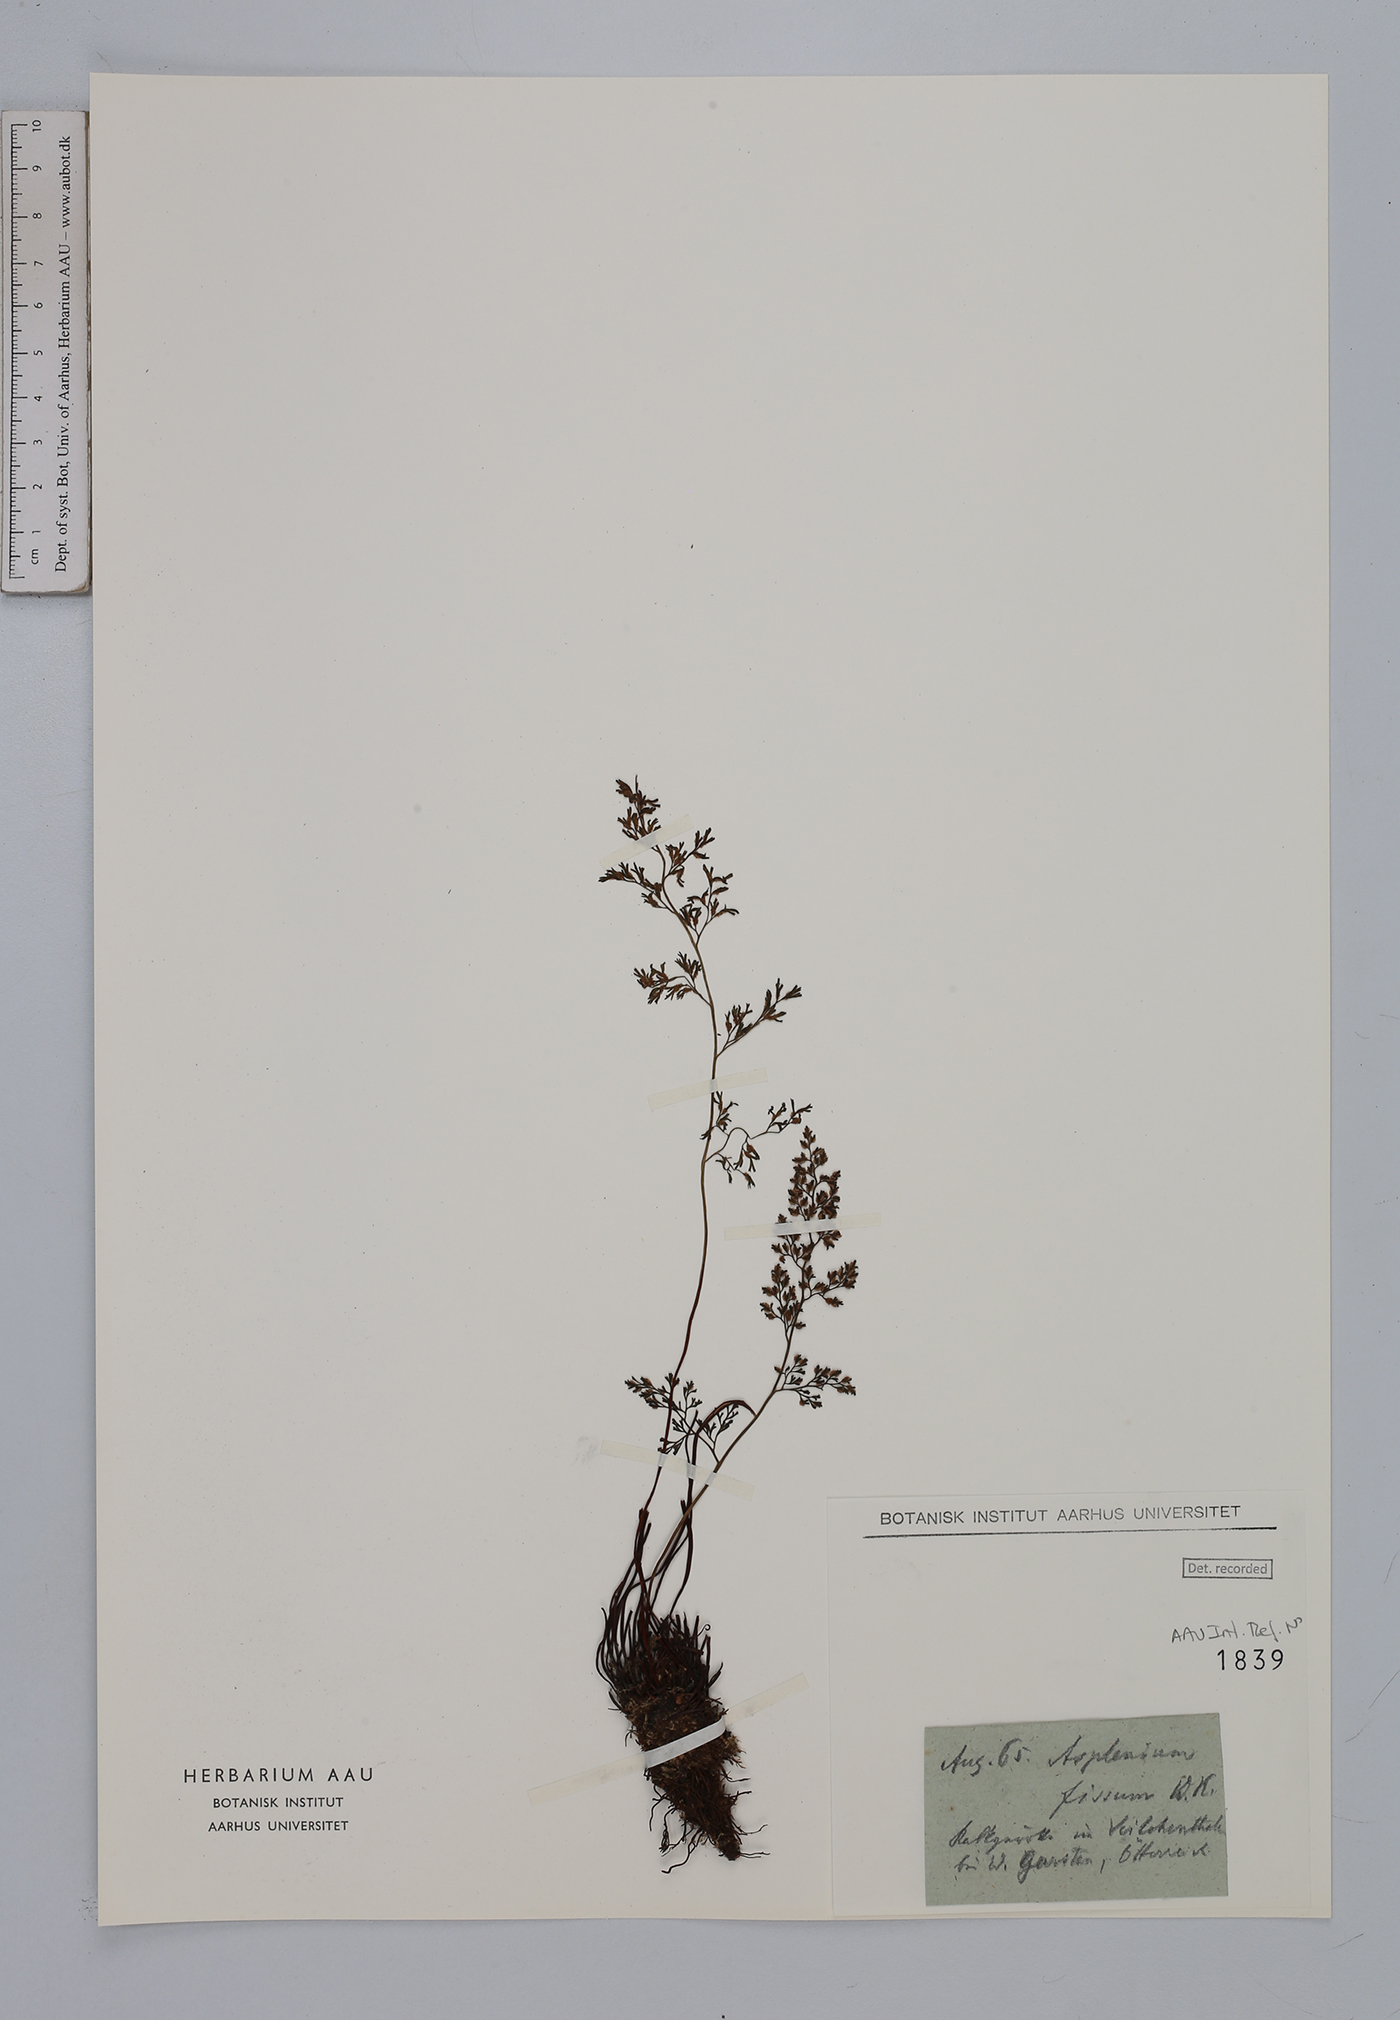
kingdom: Plantae
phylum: Tracheophyta
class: Polypodiopsida
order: Polypodiales
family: Aspleniaceae
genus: Asplenium
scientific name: Asplenium fissum
